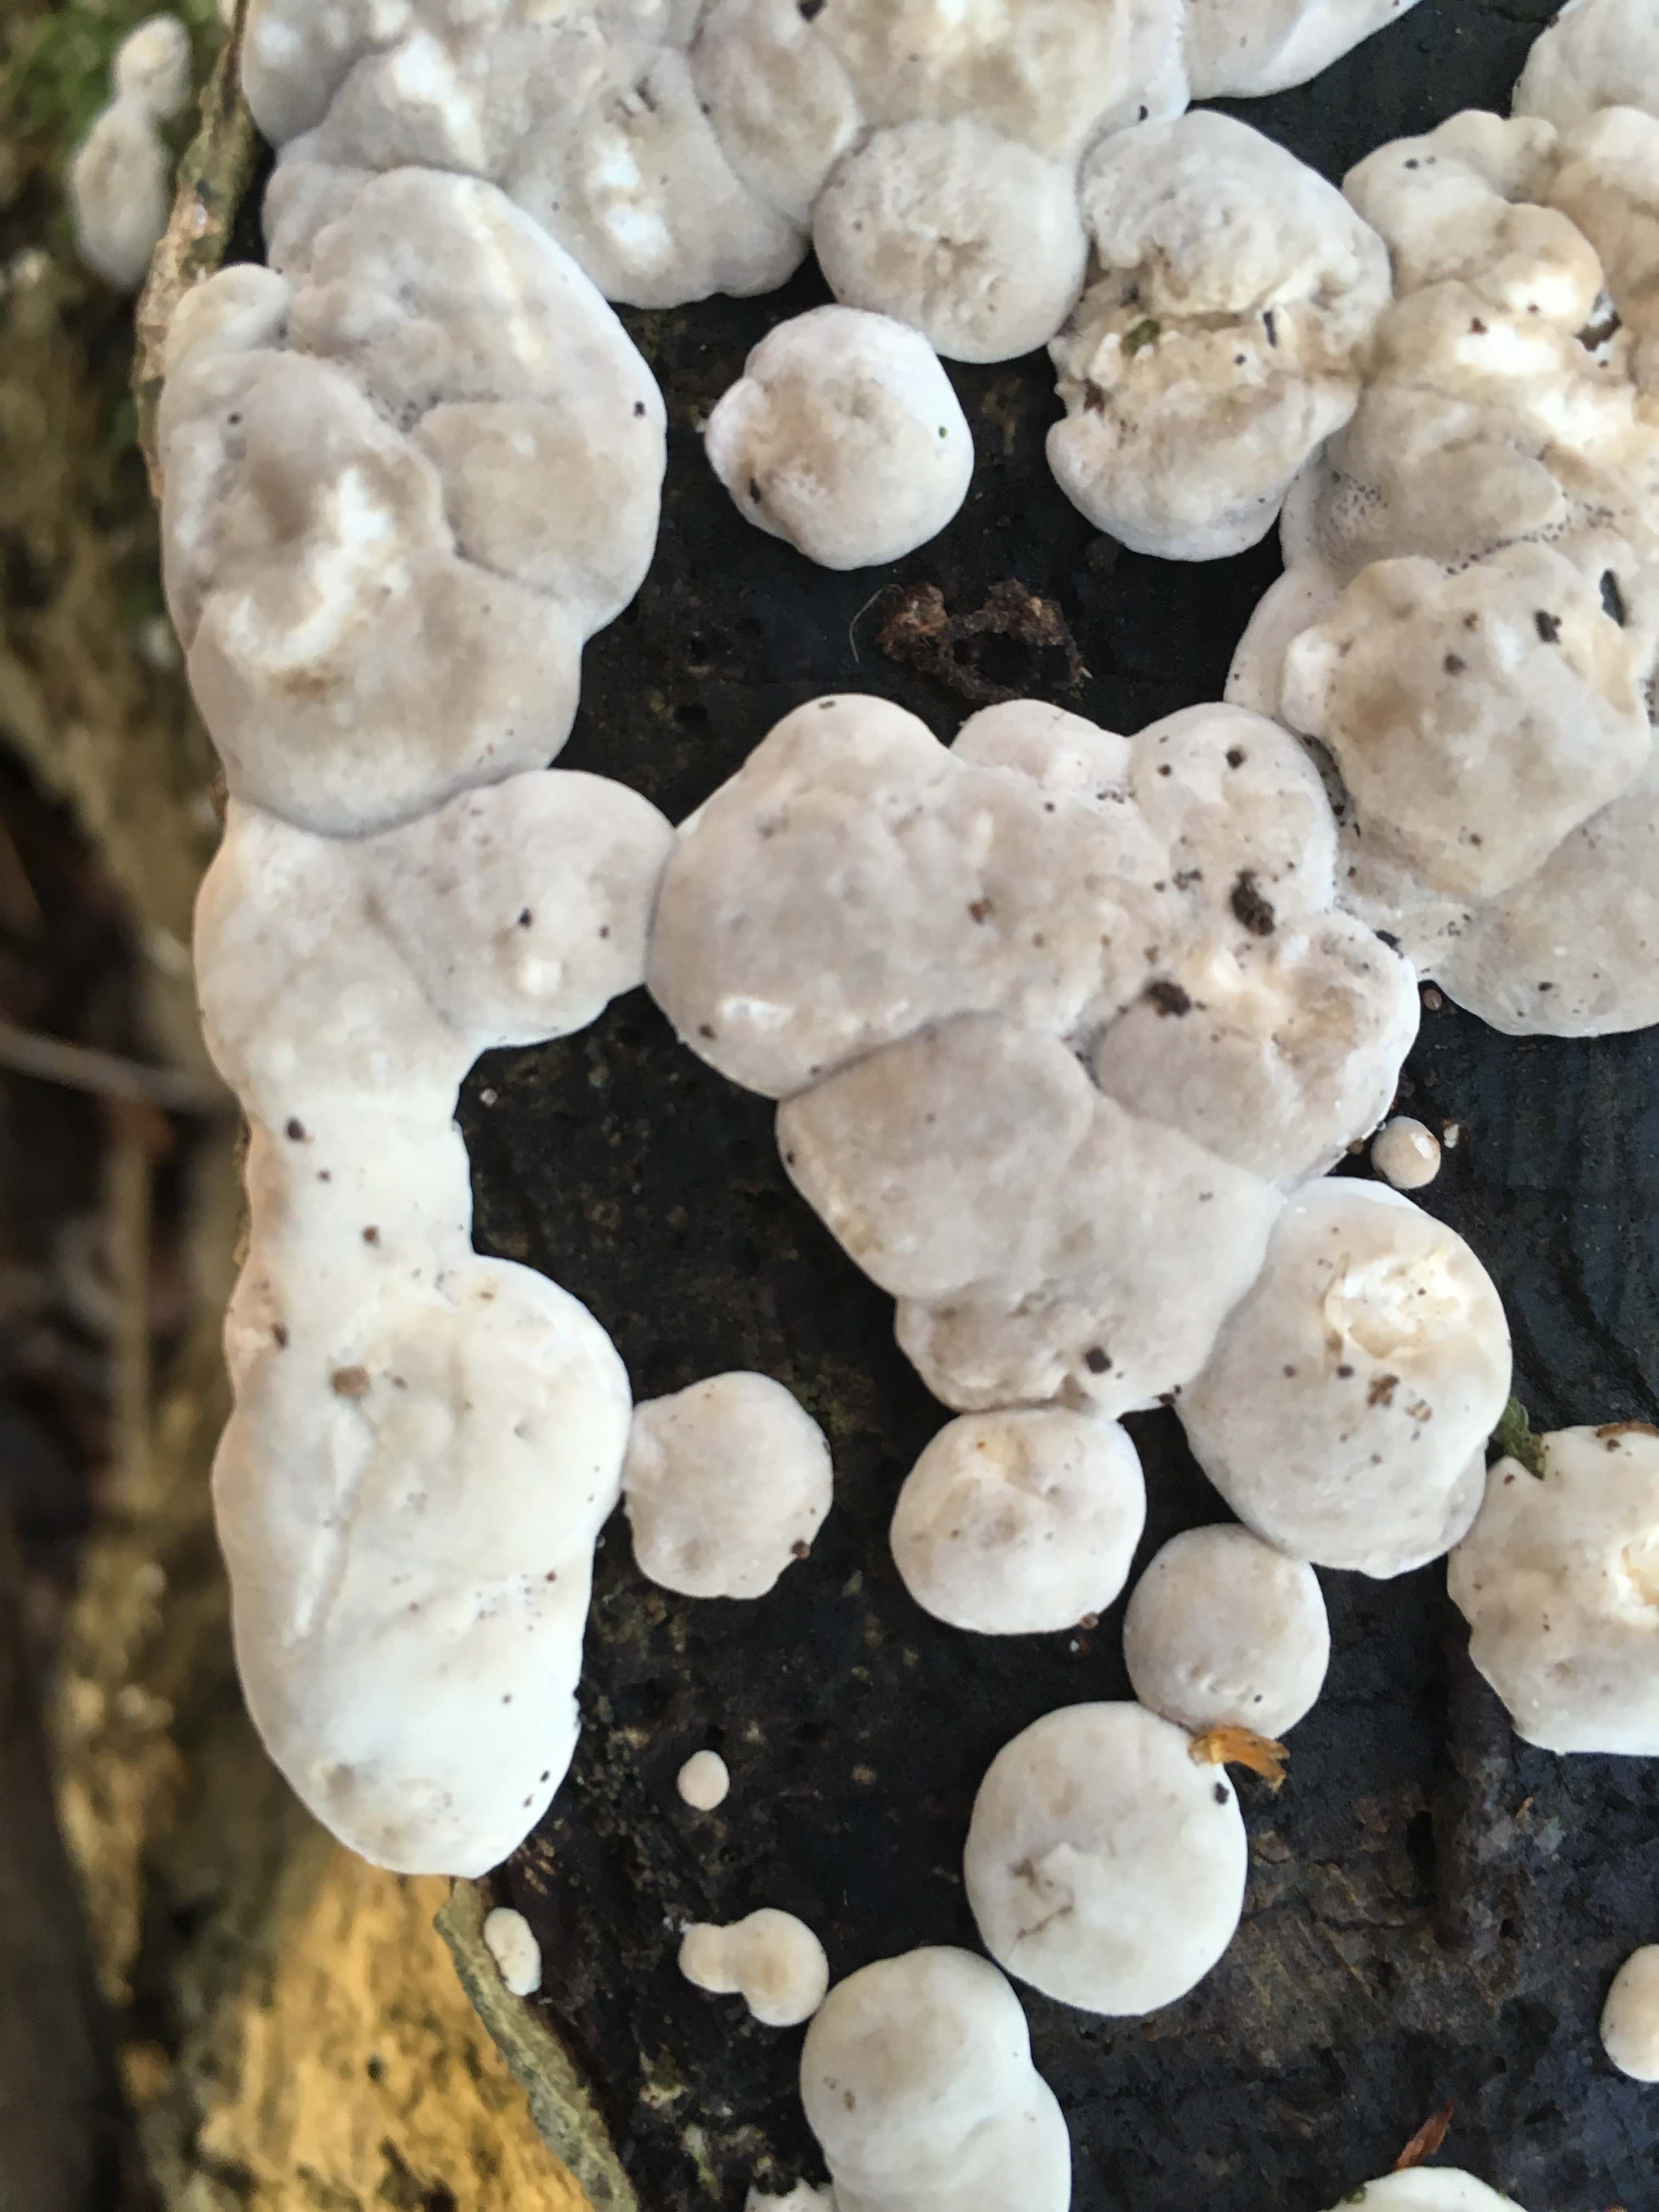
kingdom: Fungi
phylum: Basidiomycota
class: Agaricomycetes
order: Polyporales
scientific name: Polyporales
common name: poresvampordenen
